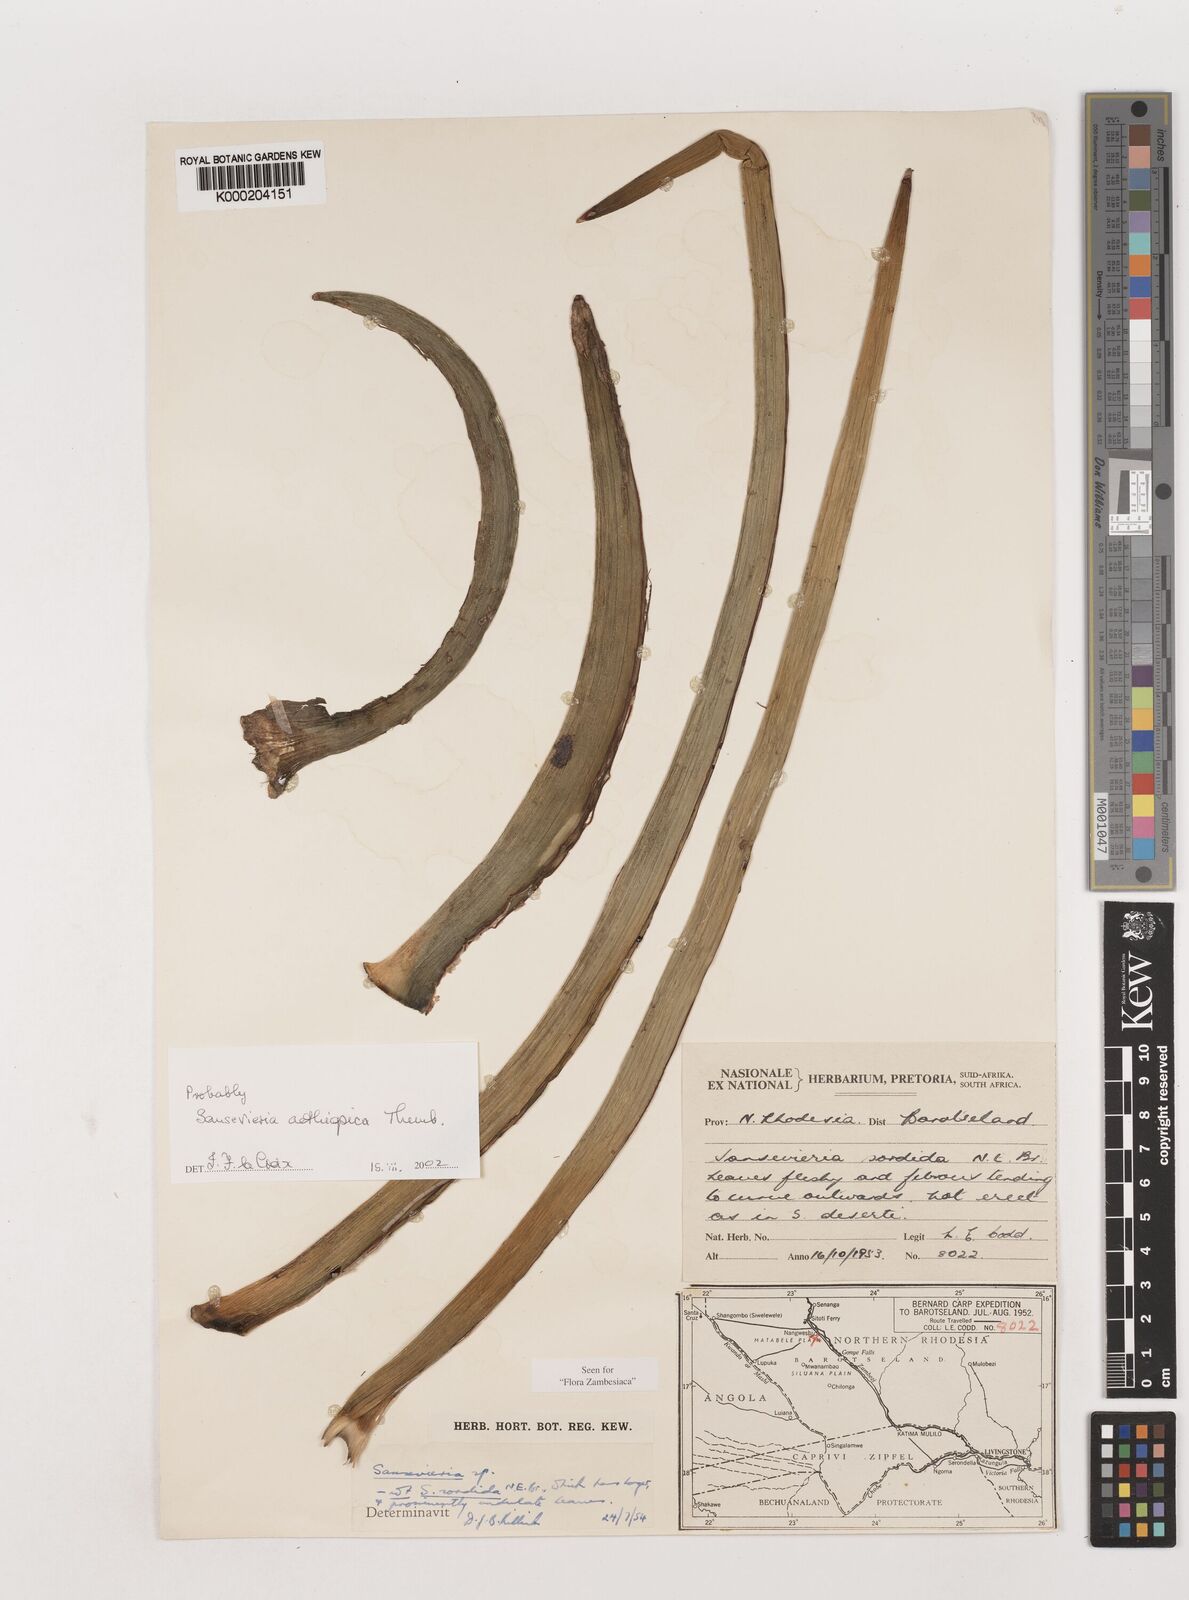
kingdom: Plantae
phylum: Tracheophyta
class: Liliopsida
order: Asparagales
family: Asparagaceae
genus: Dracaena
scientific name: Dracaena aethiopica
